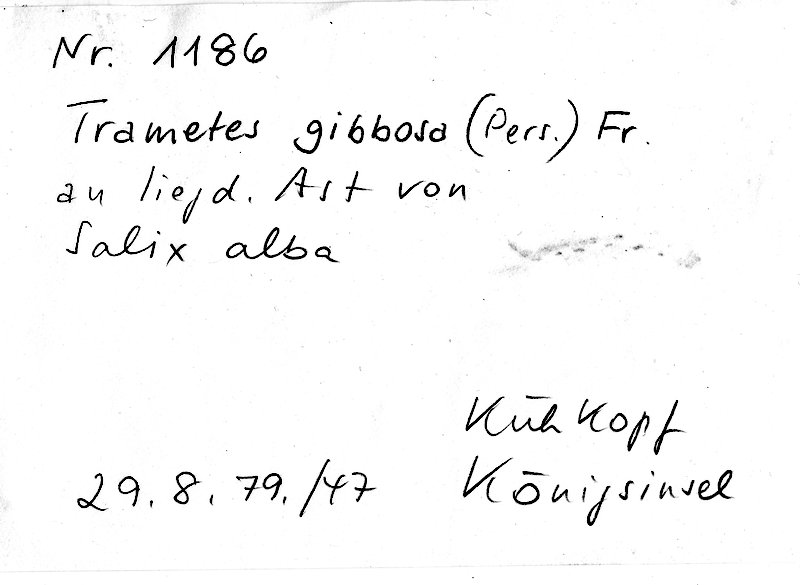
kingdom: Plantae
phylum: Tracheophyta
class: Magnoliopsida
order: Malpighiales
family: Salicaceae
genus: Salix
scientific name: Salix alba
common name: White willow
